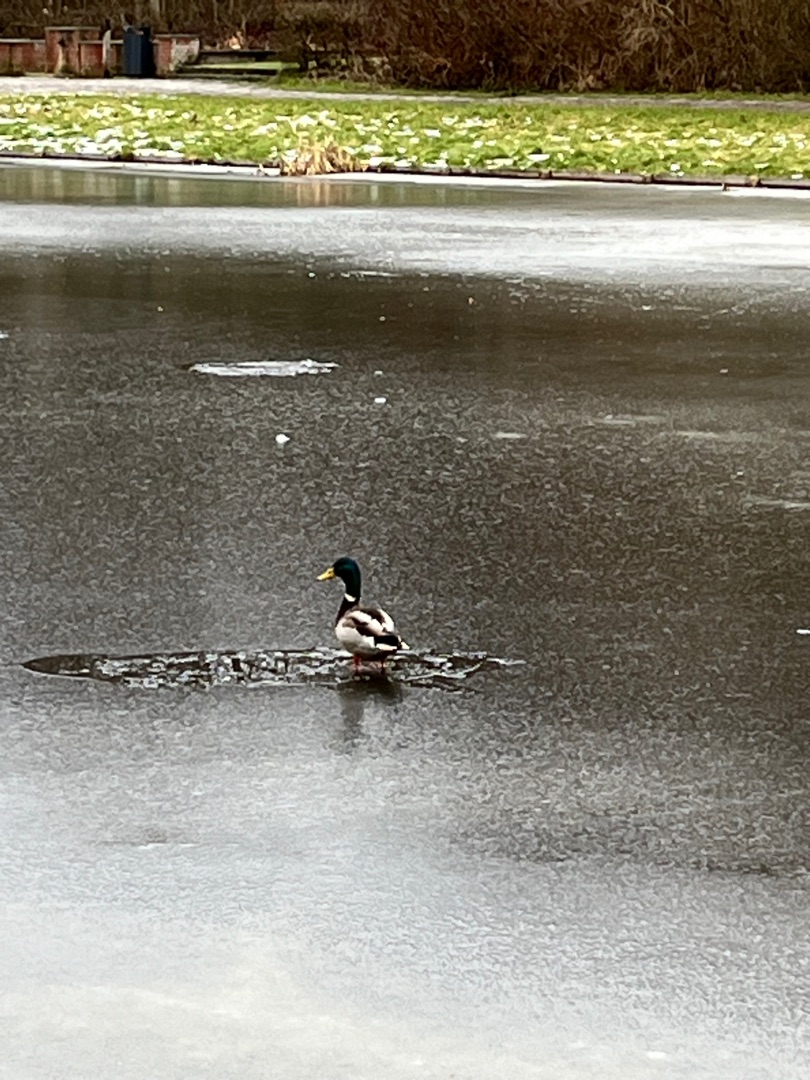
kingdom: Animalia
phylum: Chordata
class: Aves
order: Anseriformes
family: Anatidae
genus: Anas
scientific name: Anas platyrhynchos
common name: Gråand
